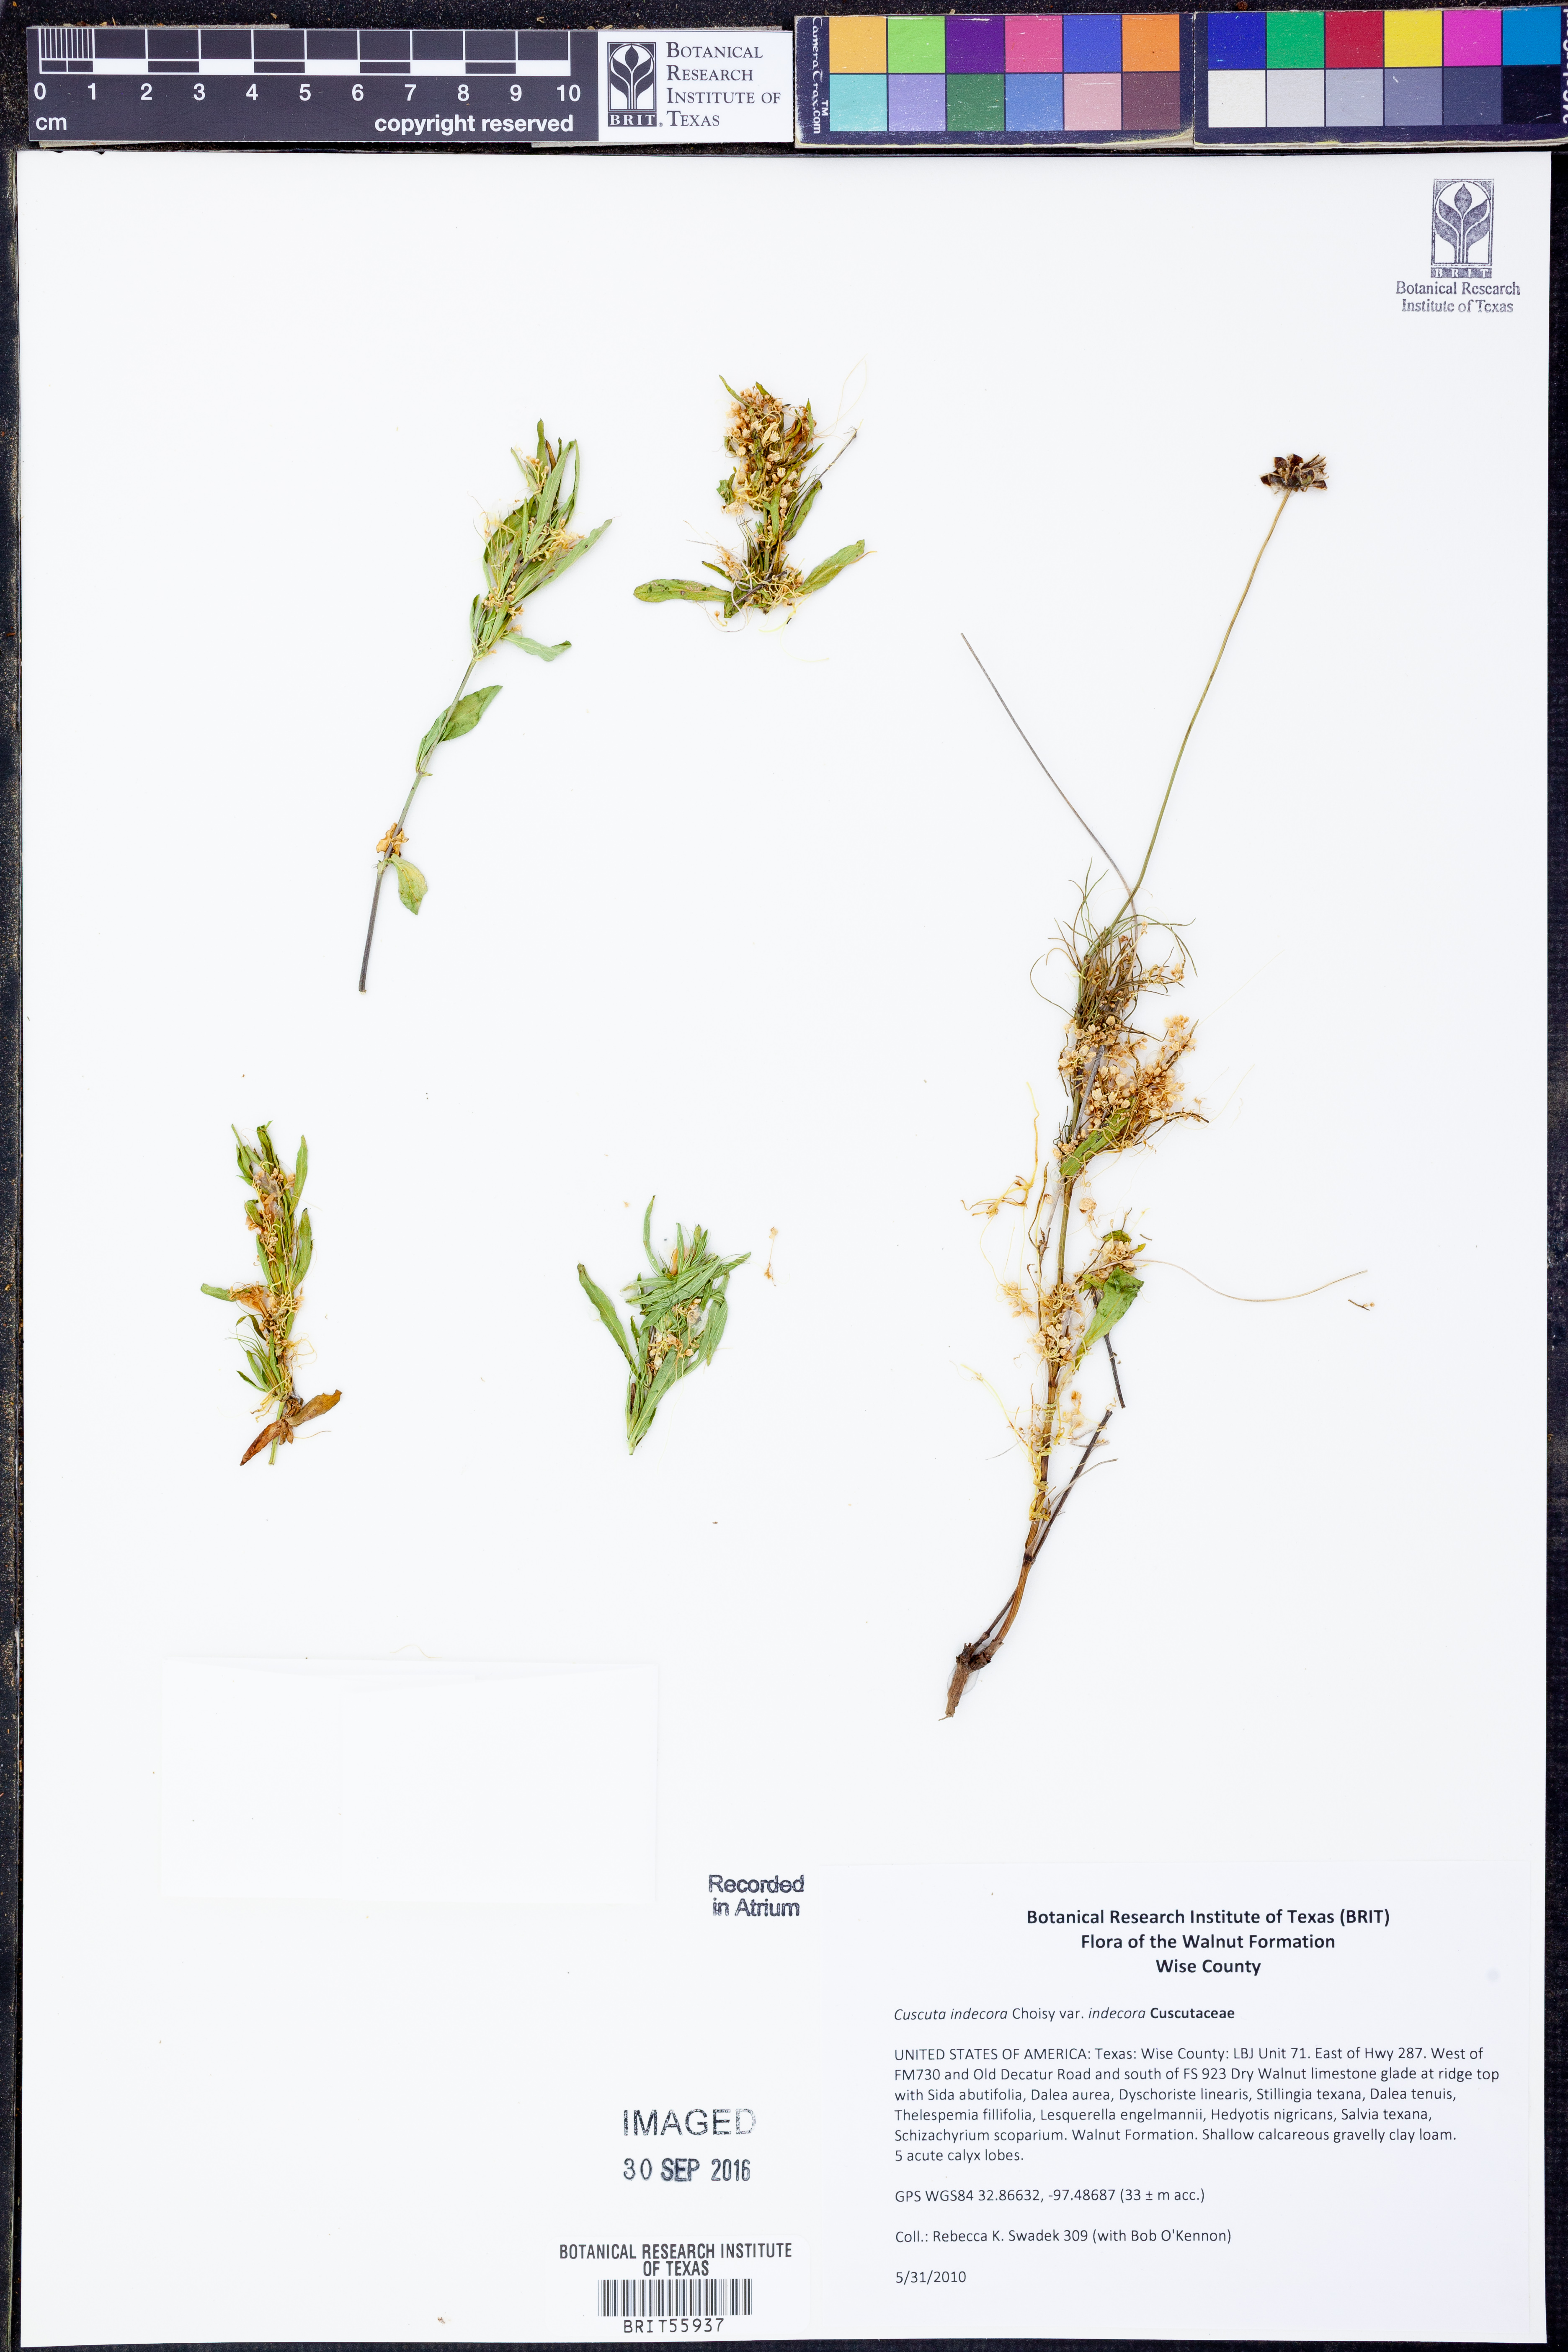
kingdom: Plantae
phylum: Tracheophyta
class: Magnoliopsida
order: Solanales
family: Convolvulaceae
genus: Cuscuta
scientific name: Cuscuta indecora
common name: Large-seed dodder
